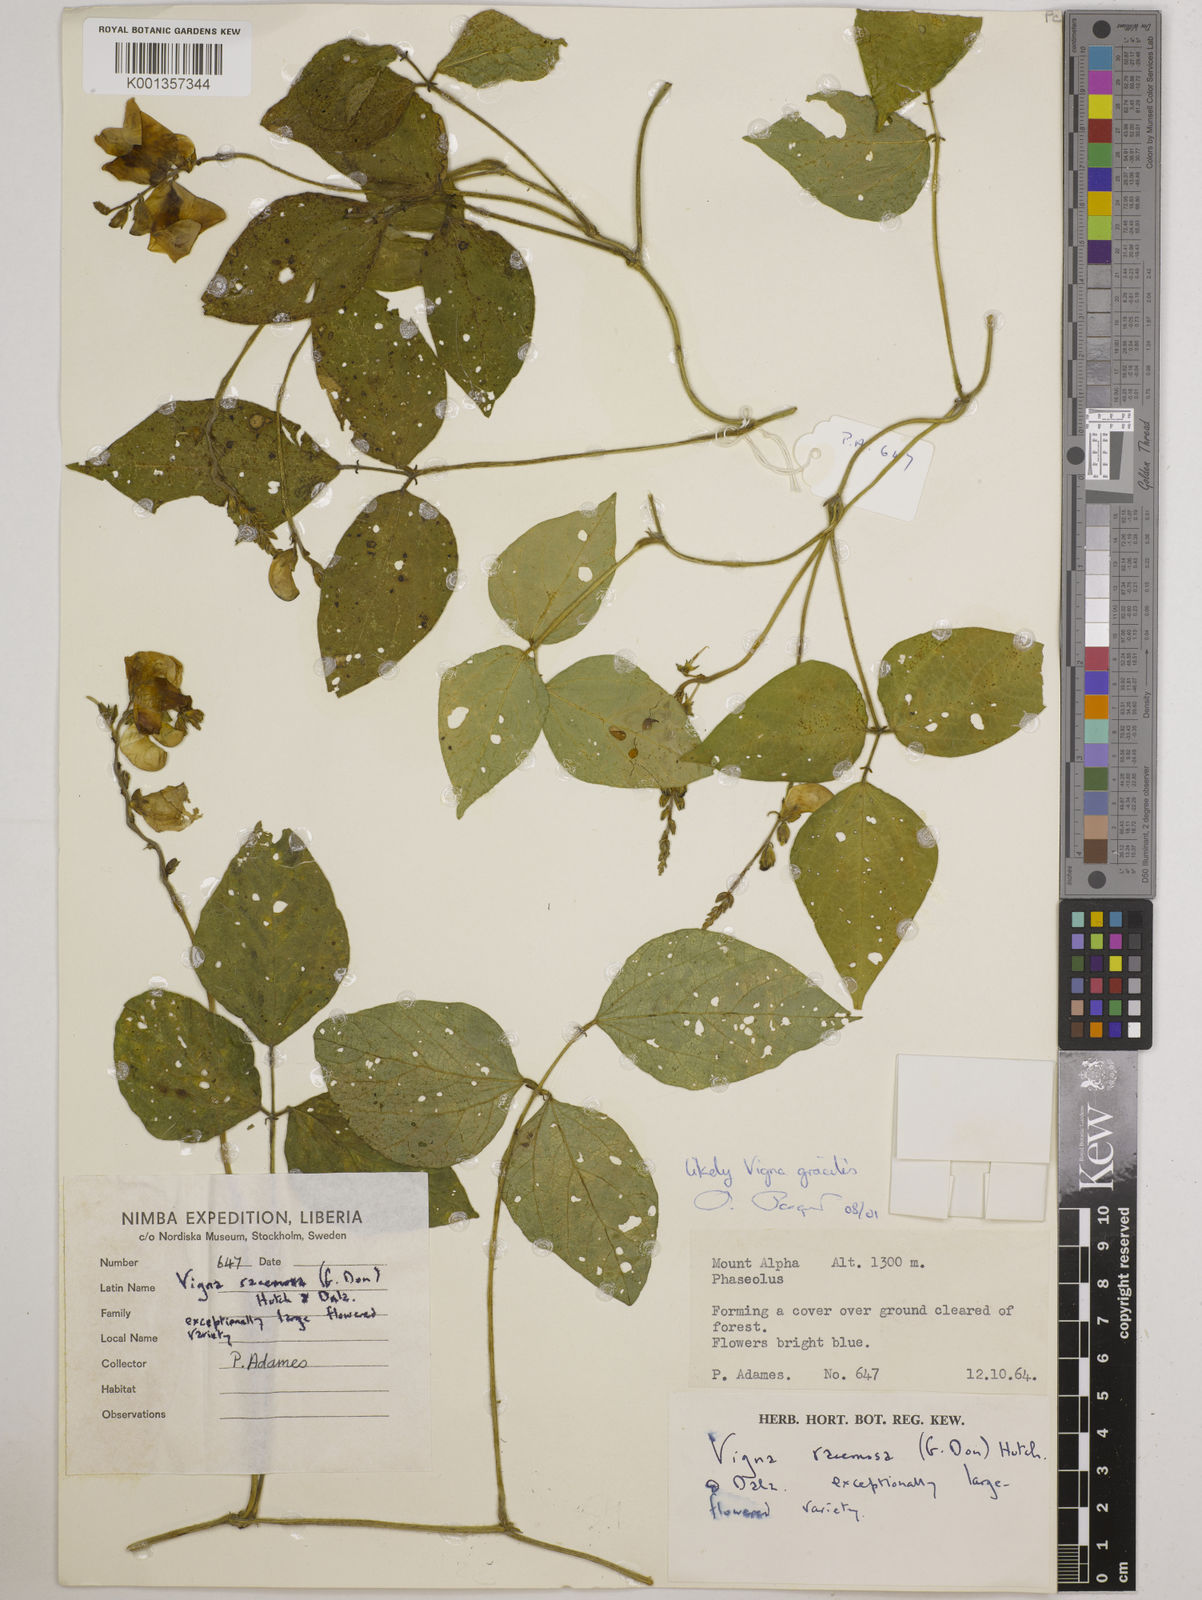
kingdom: Plantae
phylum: Tracheophyta
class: Magnoliopsida
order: Fabales
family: Fabaceae
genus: Vigna
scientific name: Vigna gracilis
